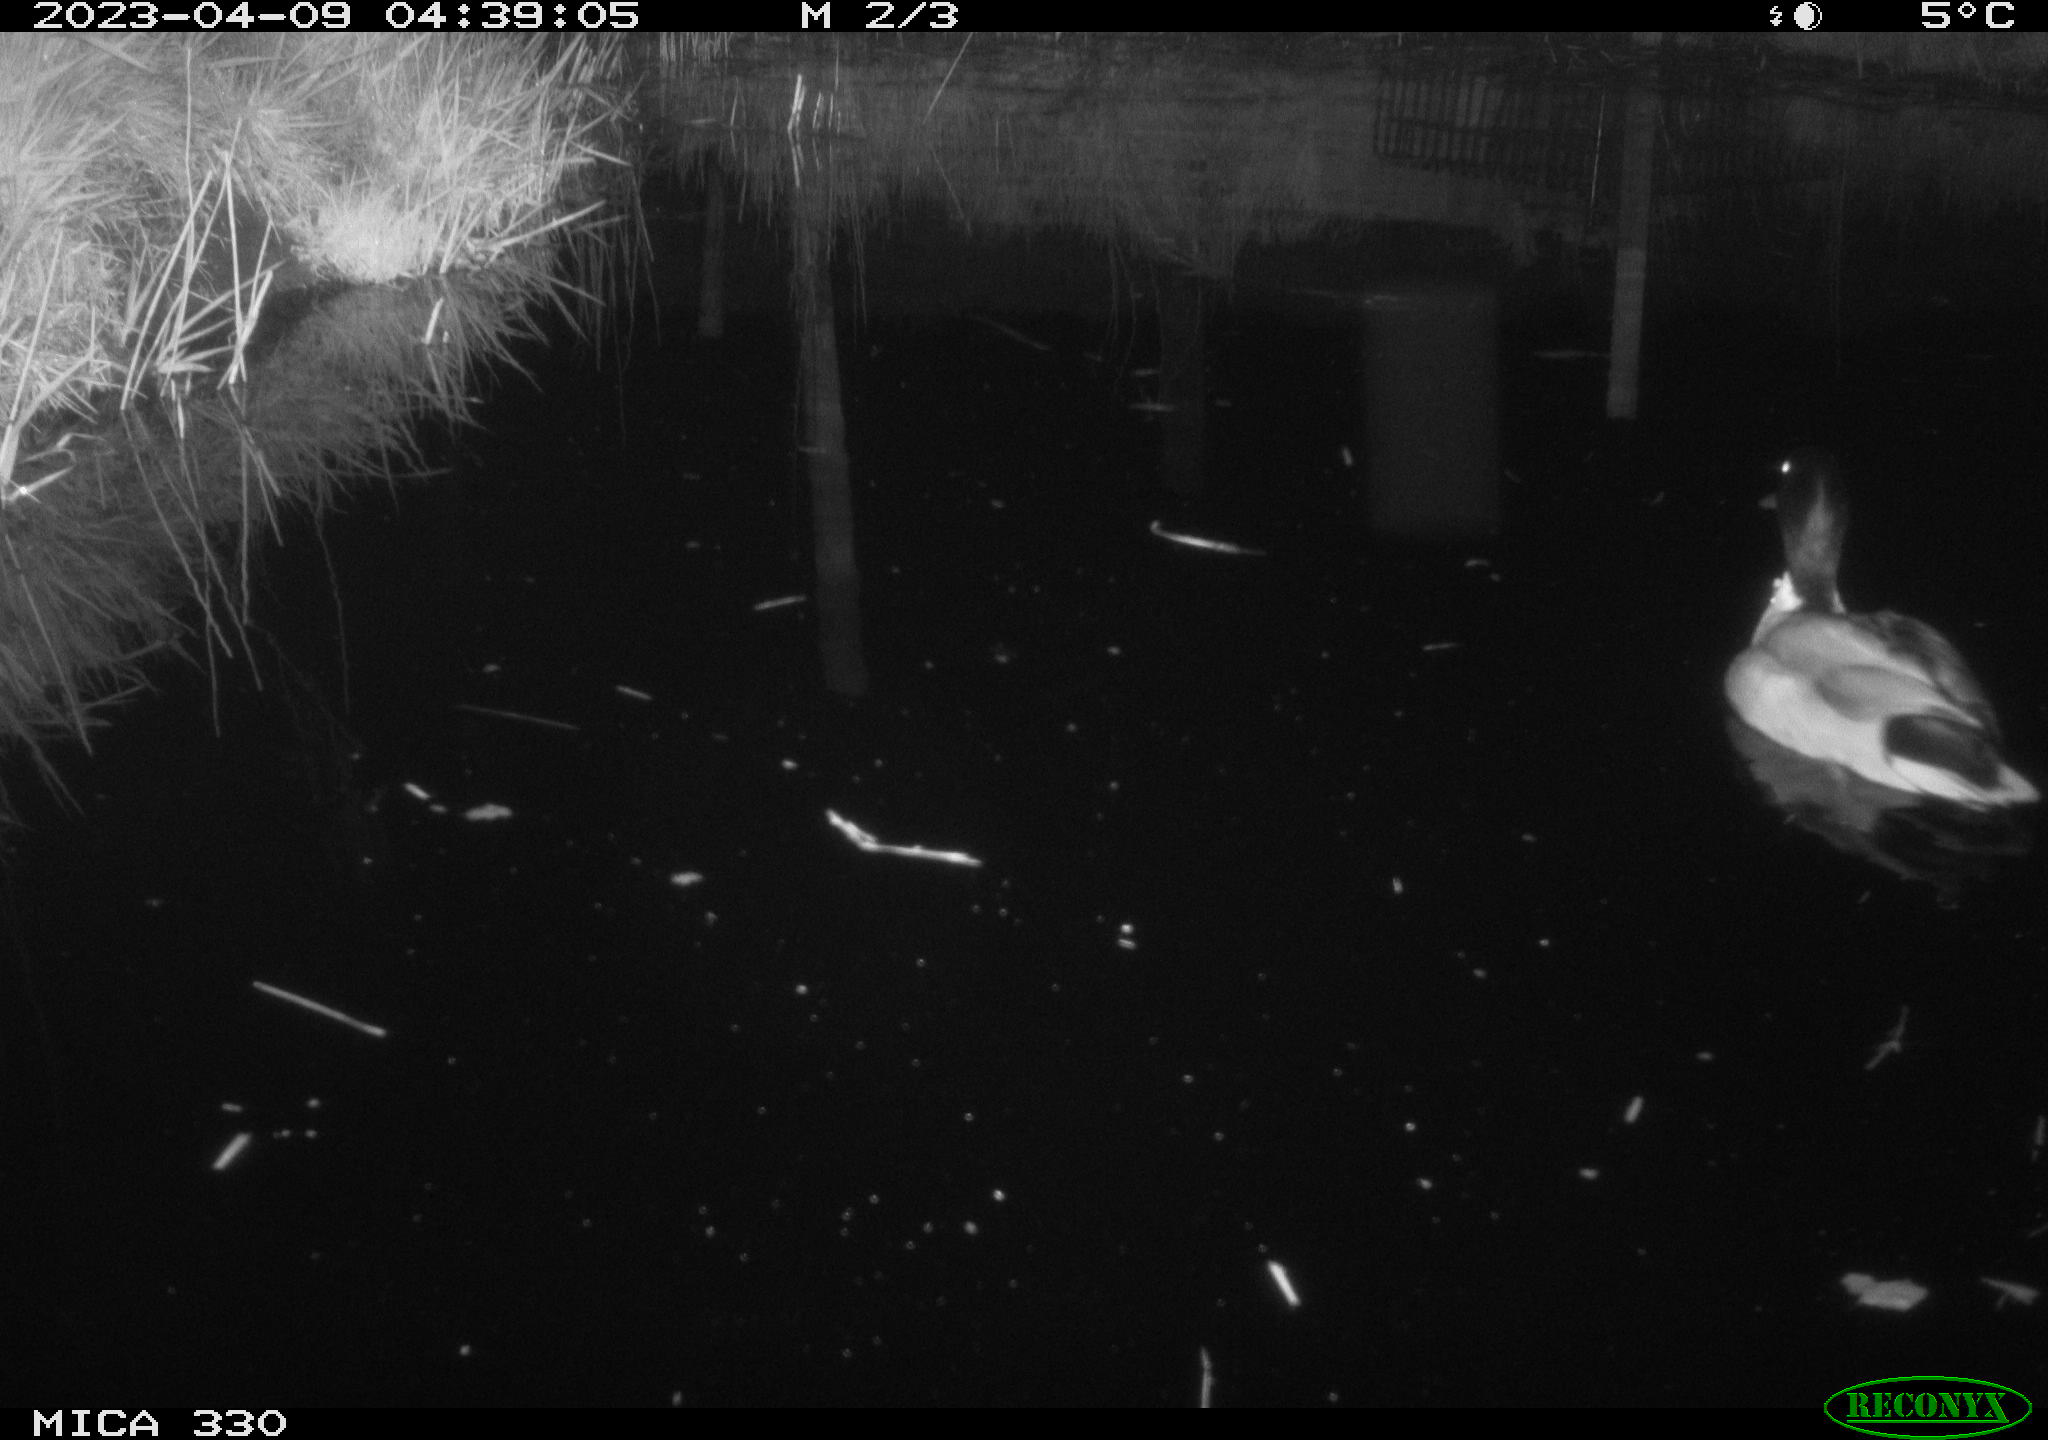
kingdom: Animalia
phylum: Chordata
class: Aves
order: Anseriformes
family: Anatidae
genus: Anas
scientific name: Anas platyrhynchos
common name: Mallard
